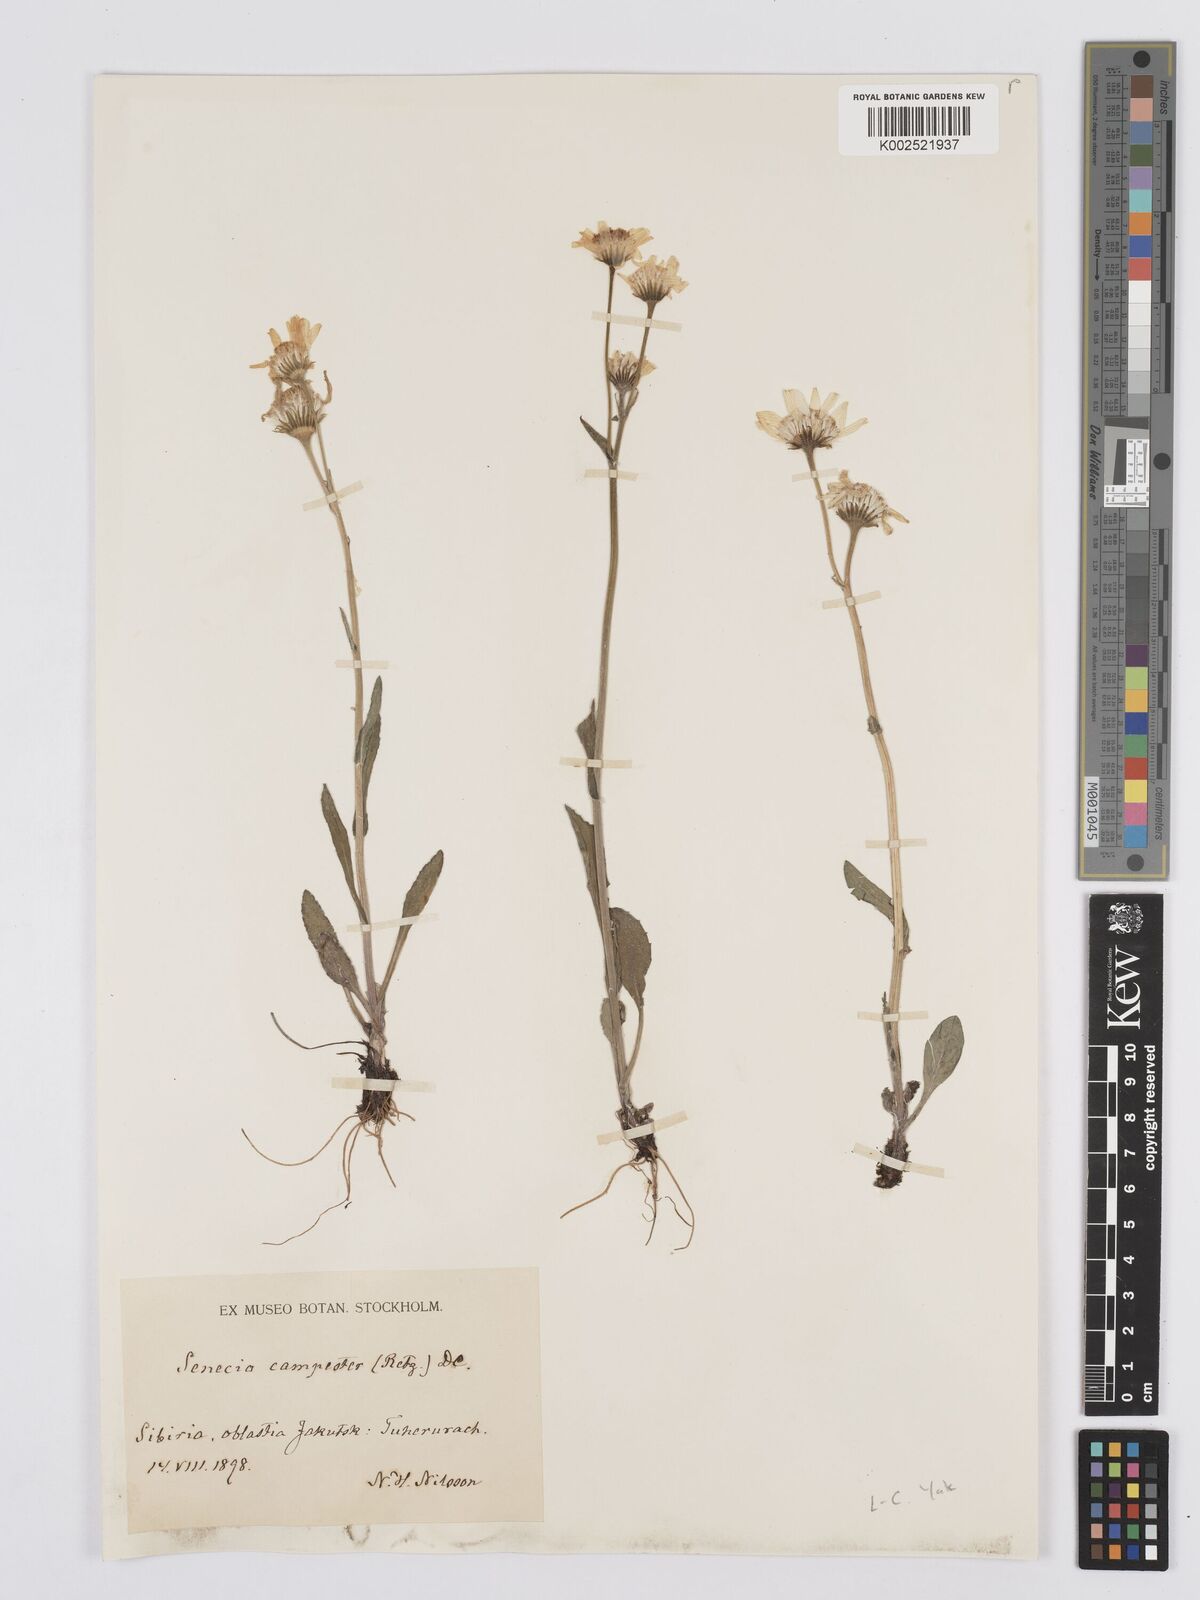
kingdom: Plantae
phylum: Tracheophyta
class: Magnoliopsida
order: Asterales
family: Asteraceae
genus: Tephroseris
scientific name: Tephroseris integrifolia
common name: Field fleawort
